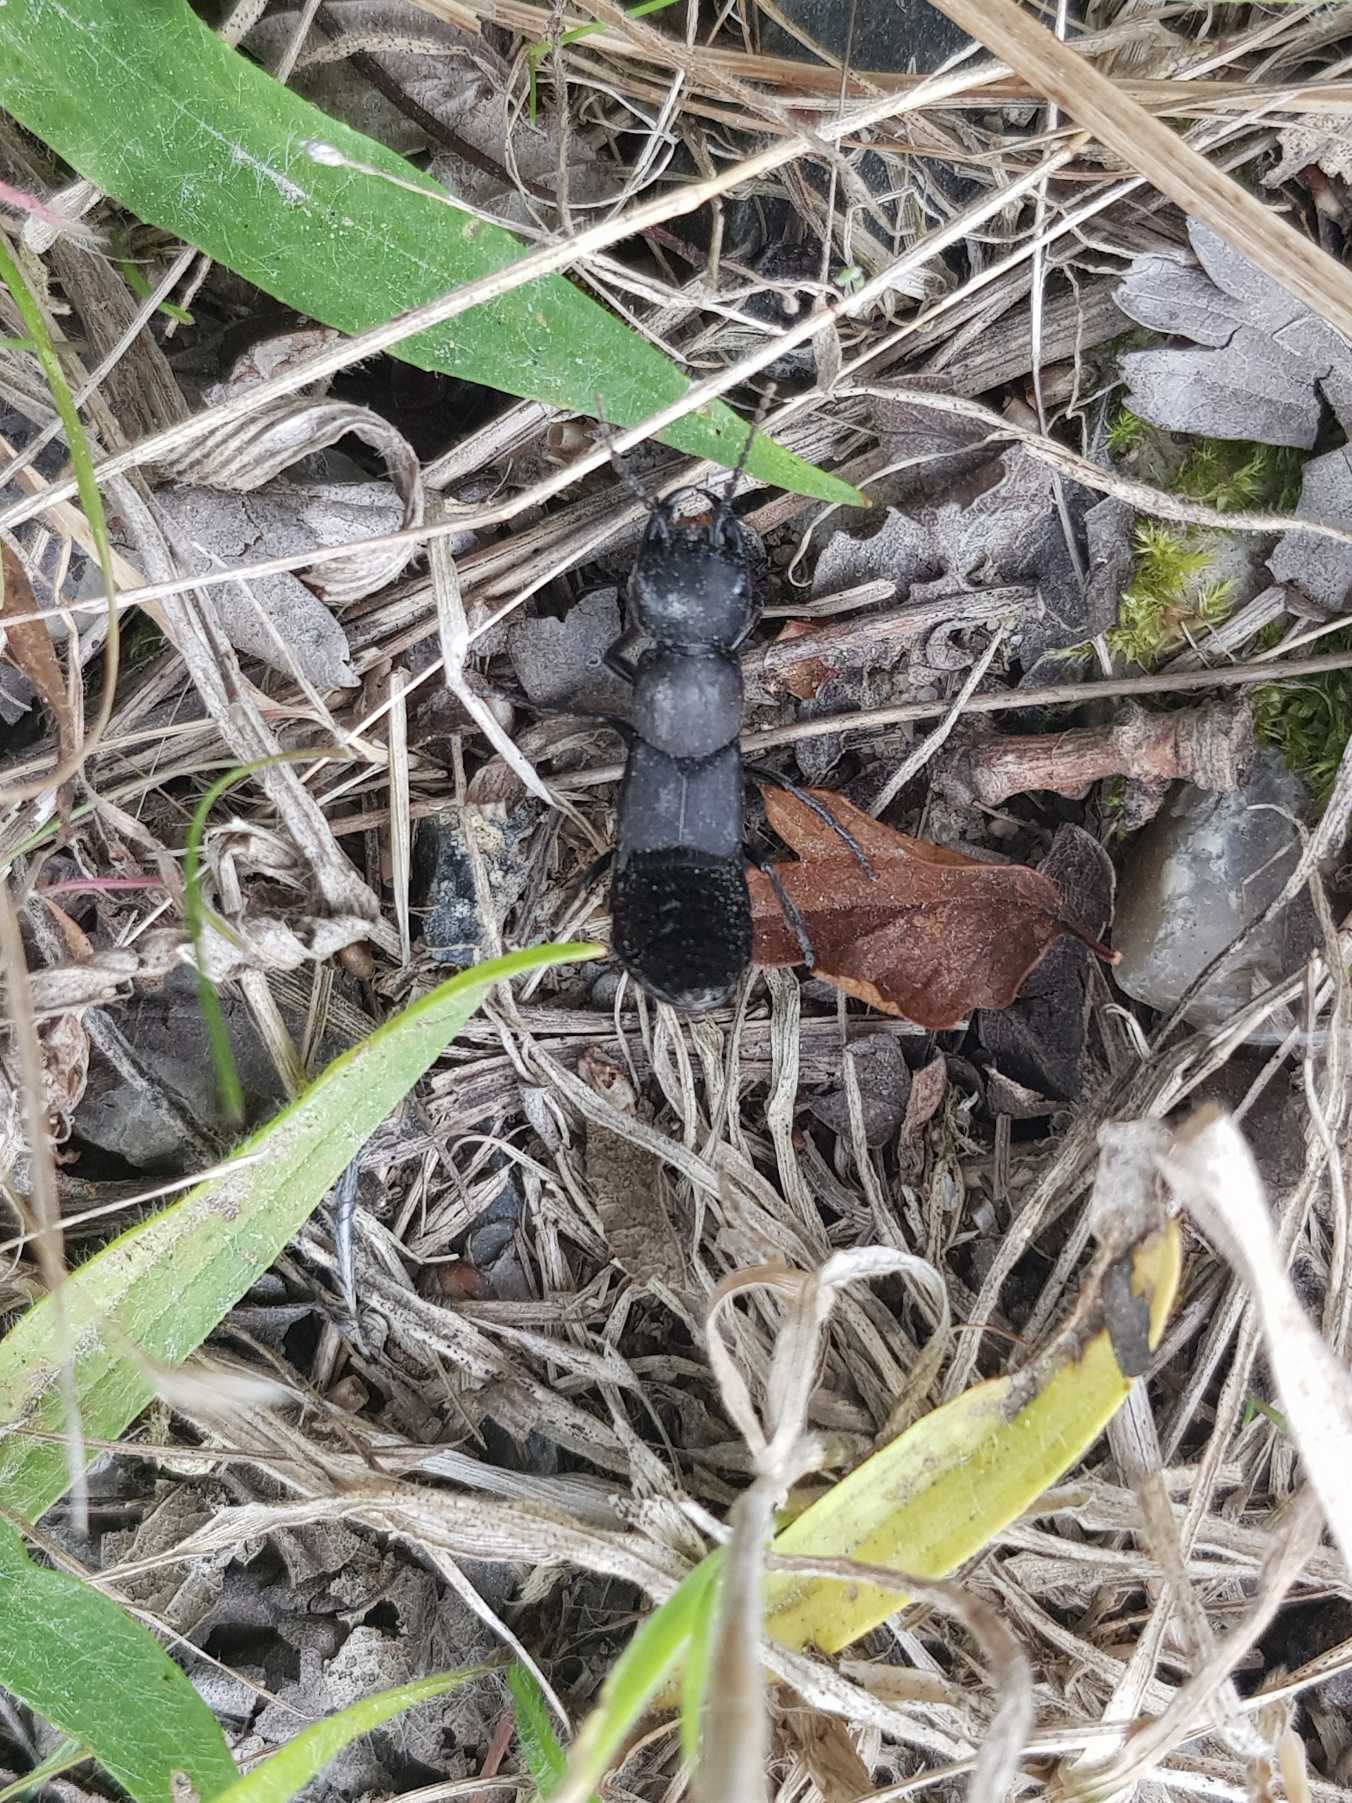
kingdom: Animalia
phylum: Arthropoda
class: Insecta
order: Coleoptera
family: Staphylinidae
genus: Ocypus
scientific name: Ocypus olens
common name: Stor rovbille
